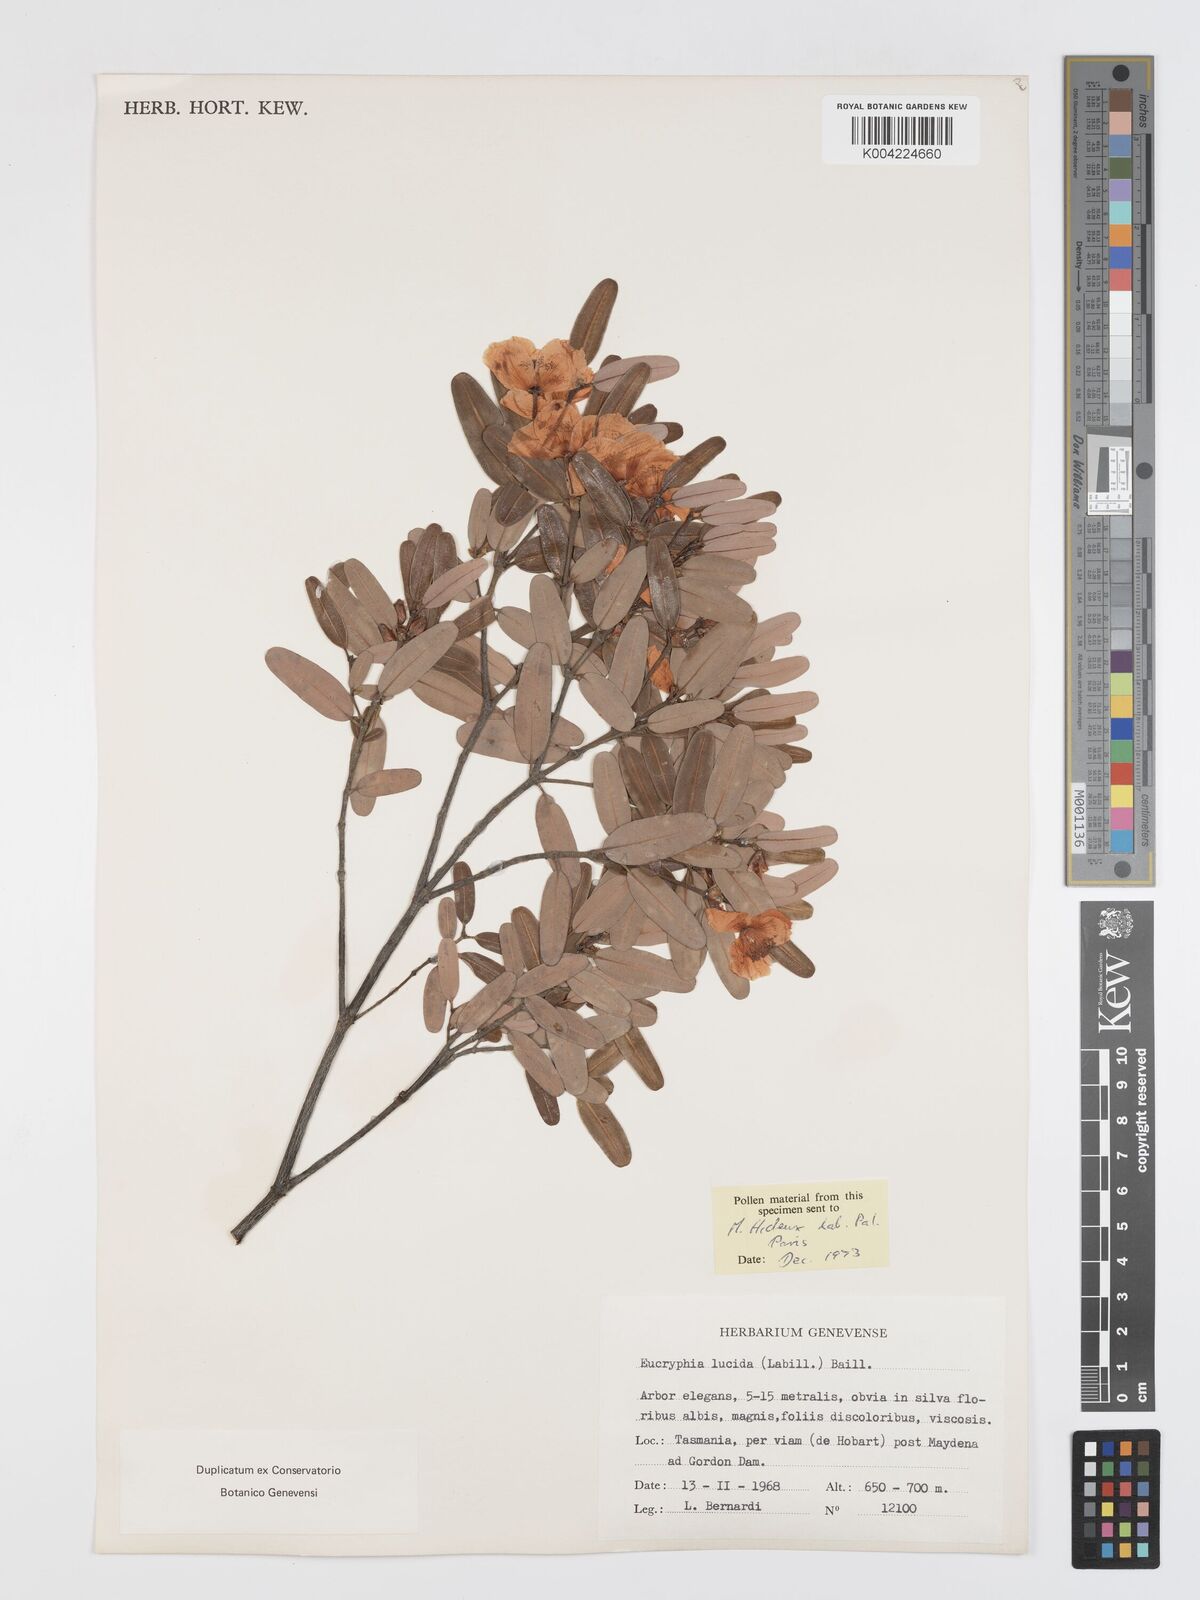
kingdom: Plantae
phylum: Tracheophyta
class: Magnoliopsida
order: Oxalidales
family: Cunoniaceae
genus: Eucryphia
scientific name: Eucryphia lucida
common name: Leatherwood
